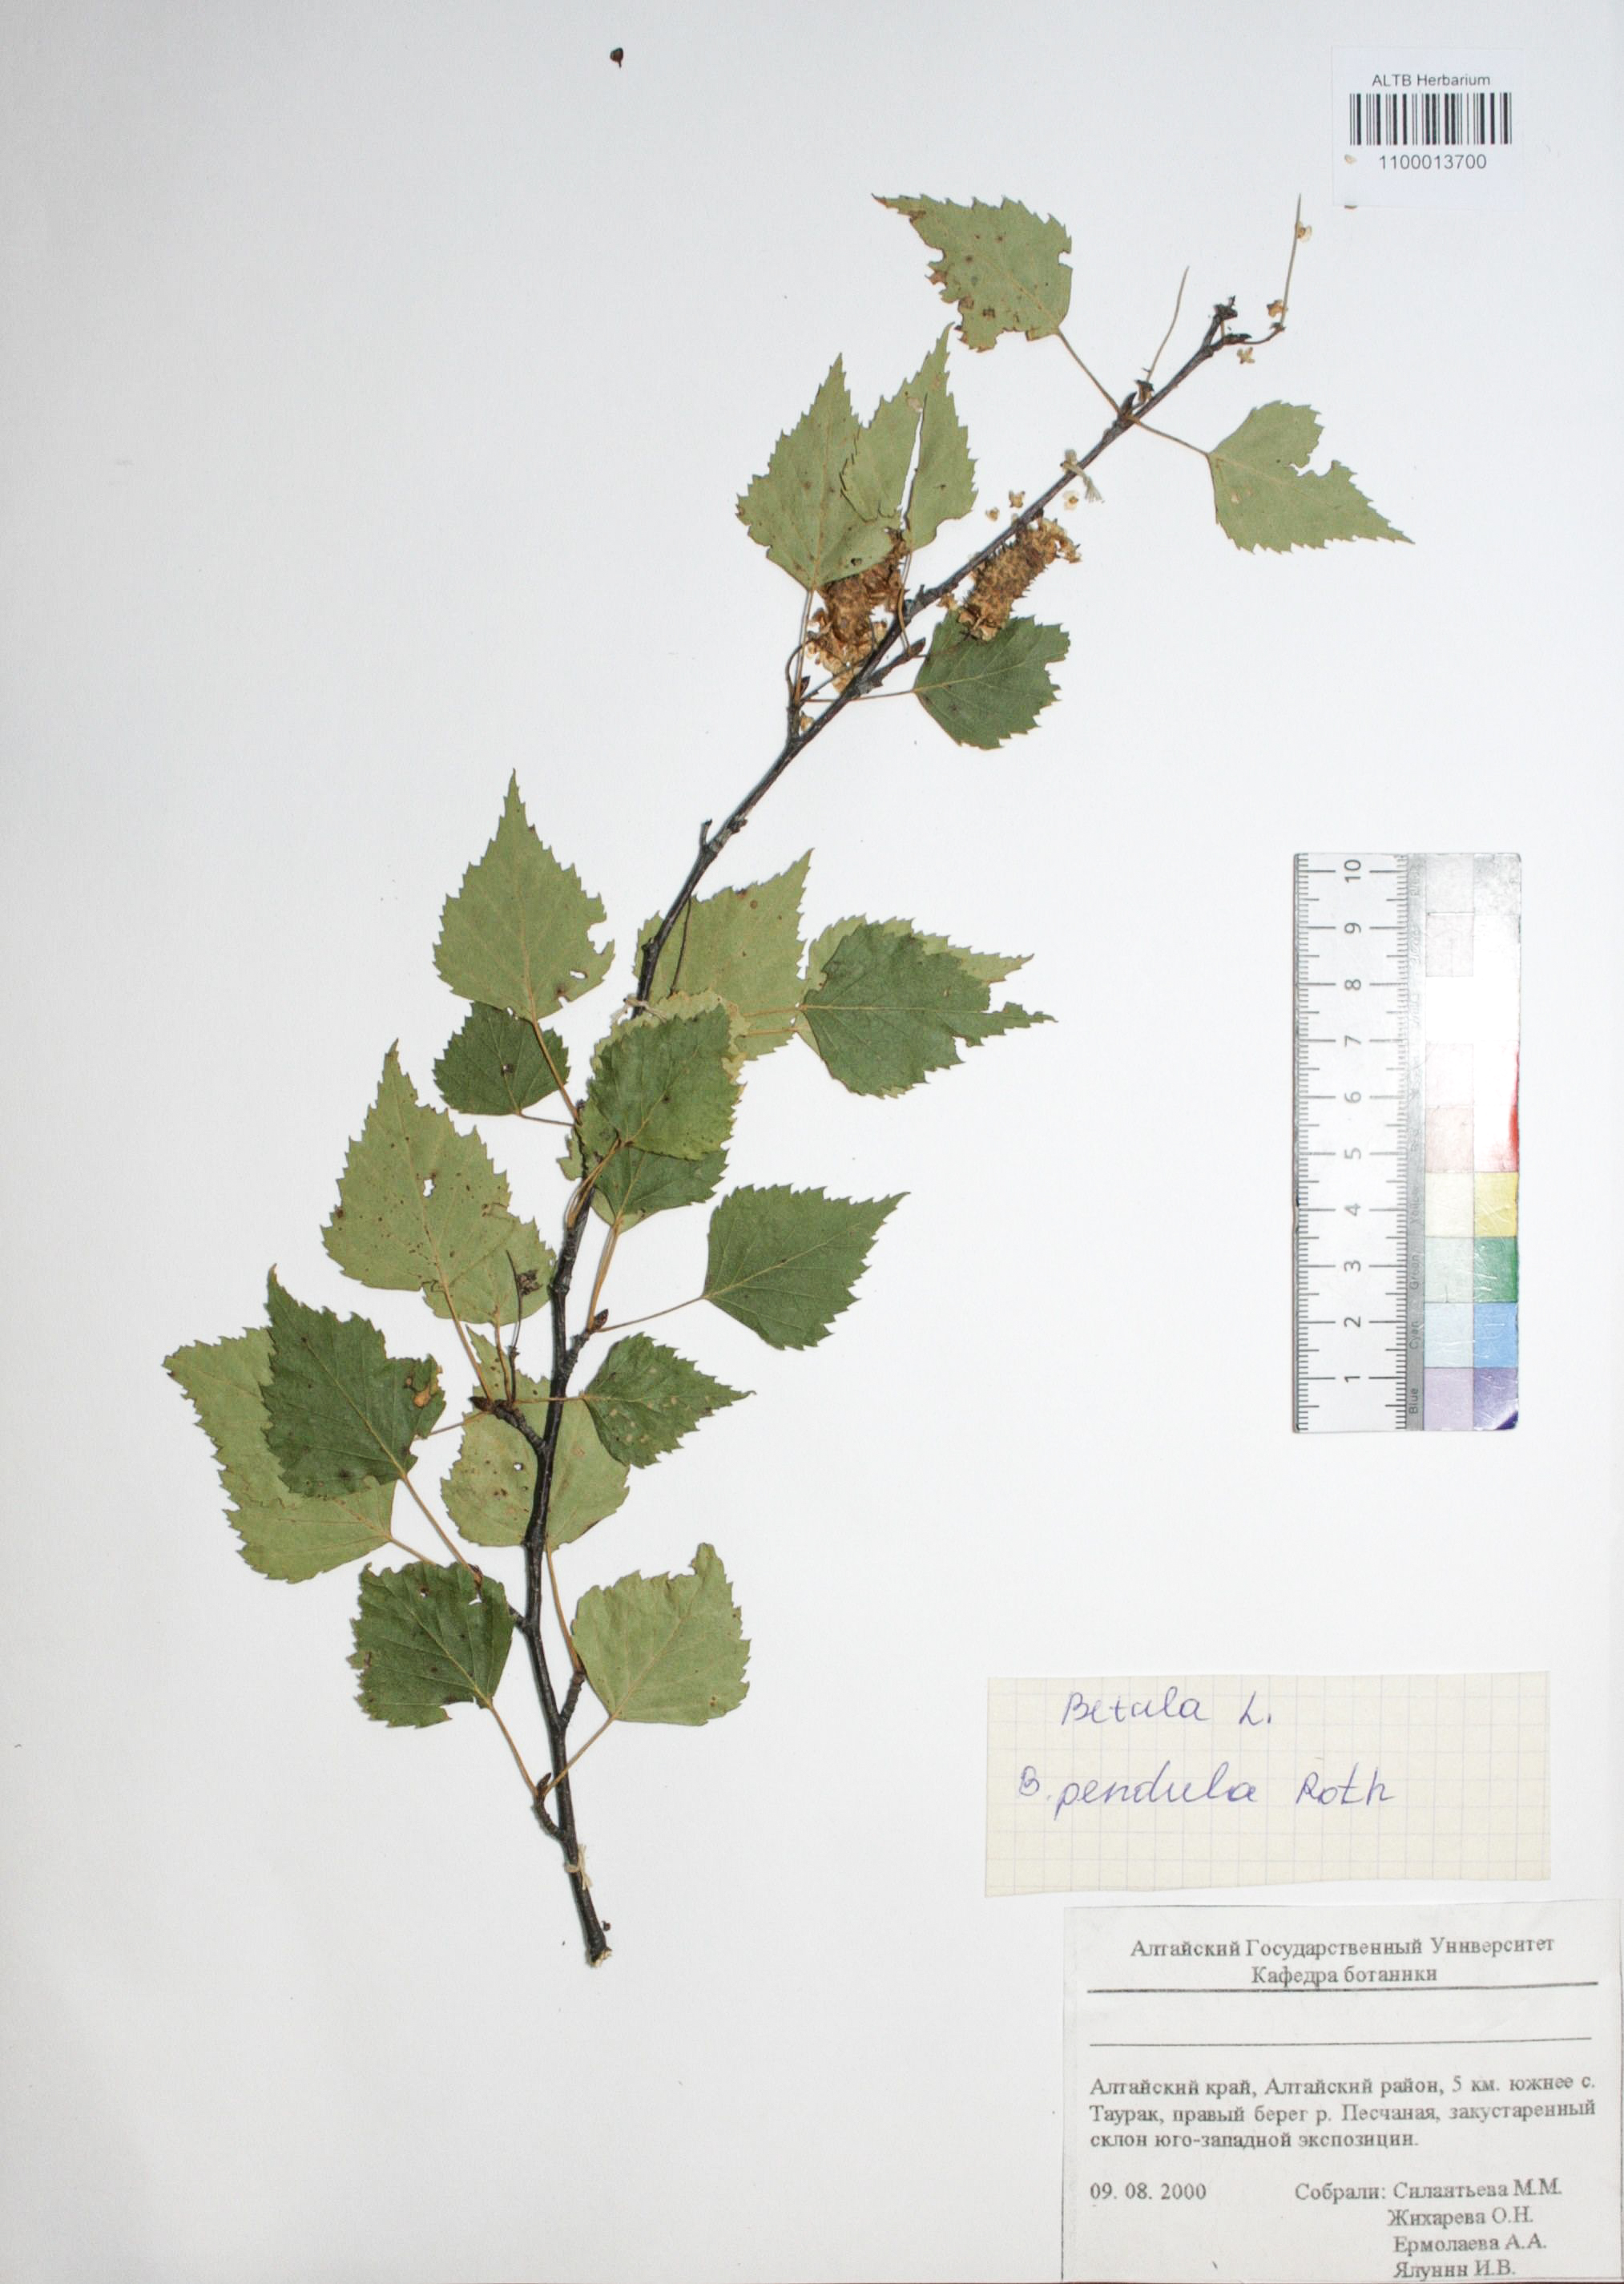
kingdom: Plantae
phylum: Tracheophyta
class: Magnoliopsida
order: Fagales
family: Betulaceae
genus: Betula
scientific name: Betula pendula
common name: Silver birch
